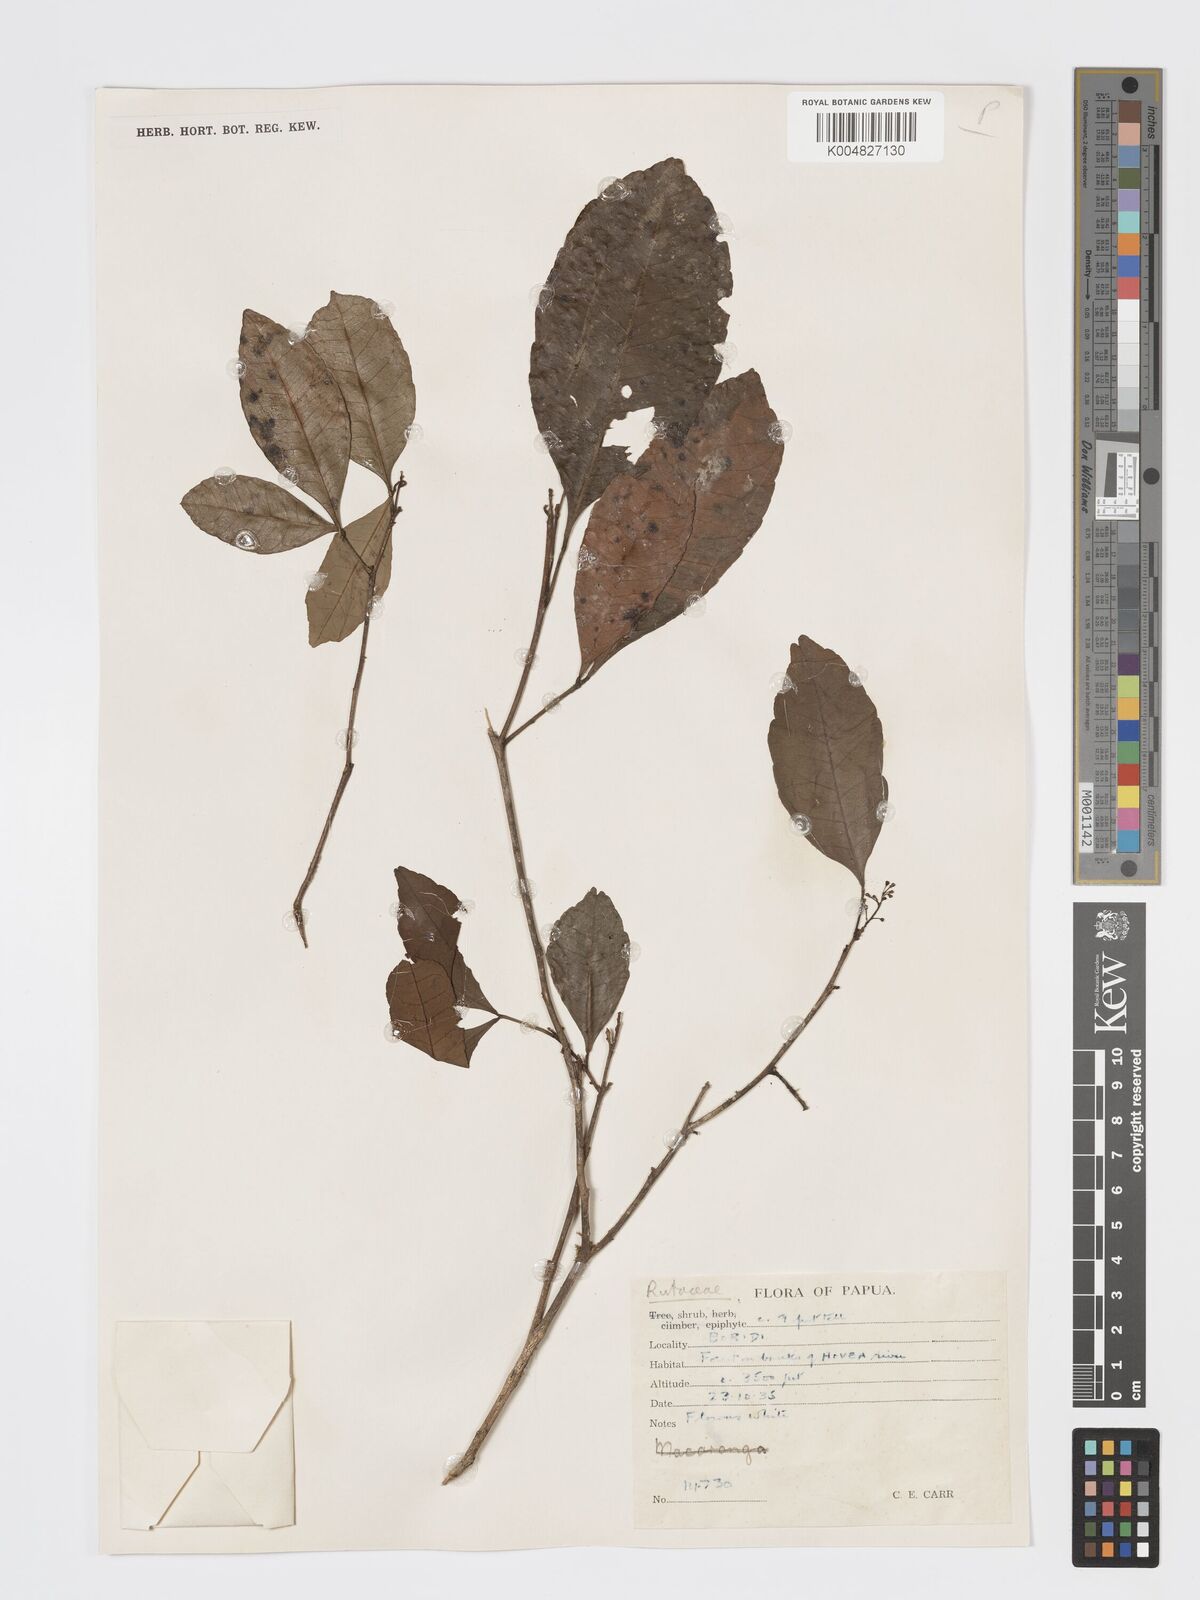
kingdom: Plantae
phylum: Tracheophyta
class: Magnoliopsida
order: Sapindales
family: Rutaceae
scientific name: Rutaceae
